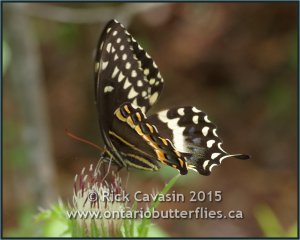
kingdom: Animalia
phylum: Arthropoda
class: Insecta
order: Lepidoptera
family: Papilionidae
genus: Pterourus
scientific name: Pterourus palamedes
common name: Palamedes Swallowtail
